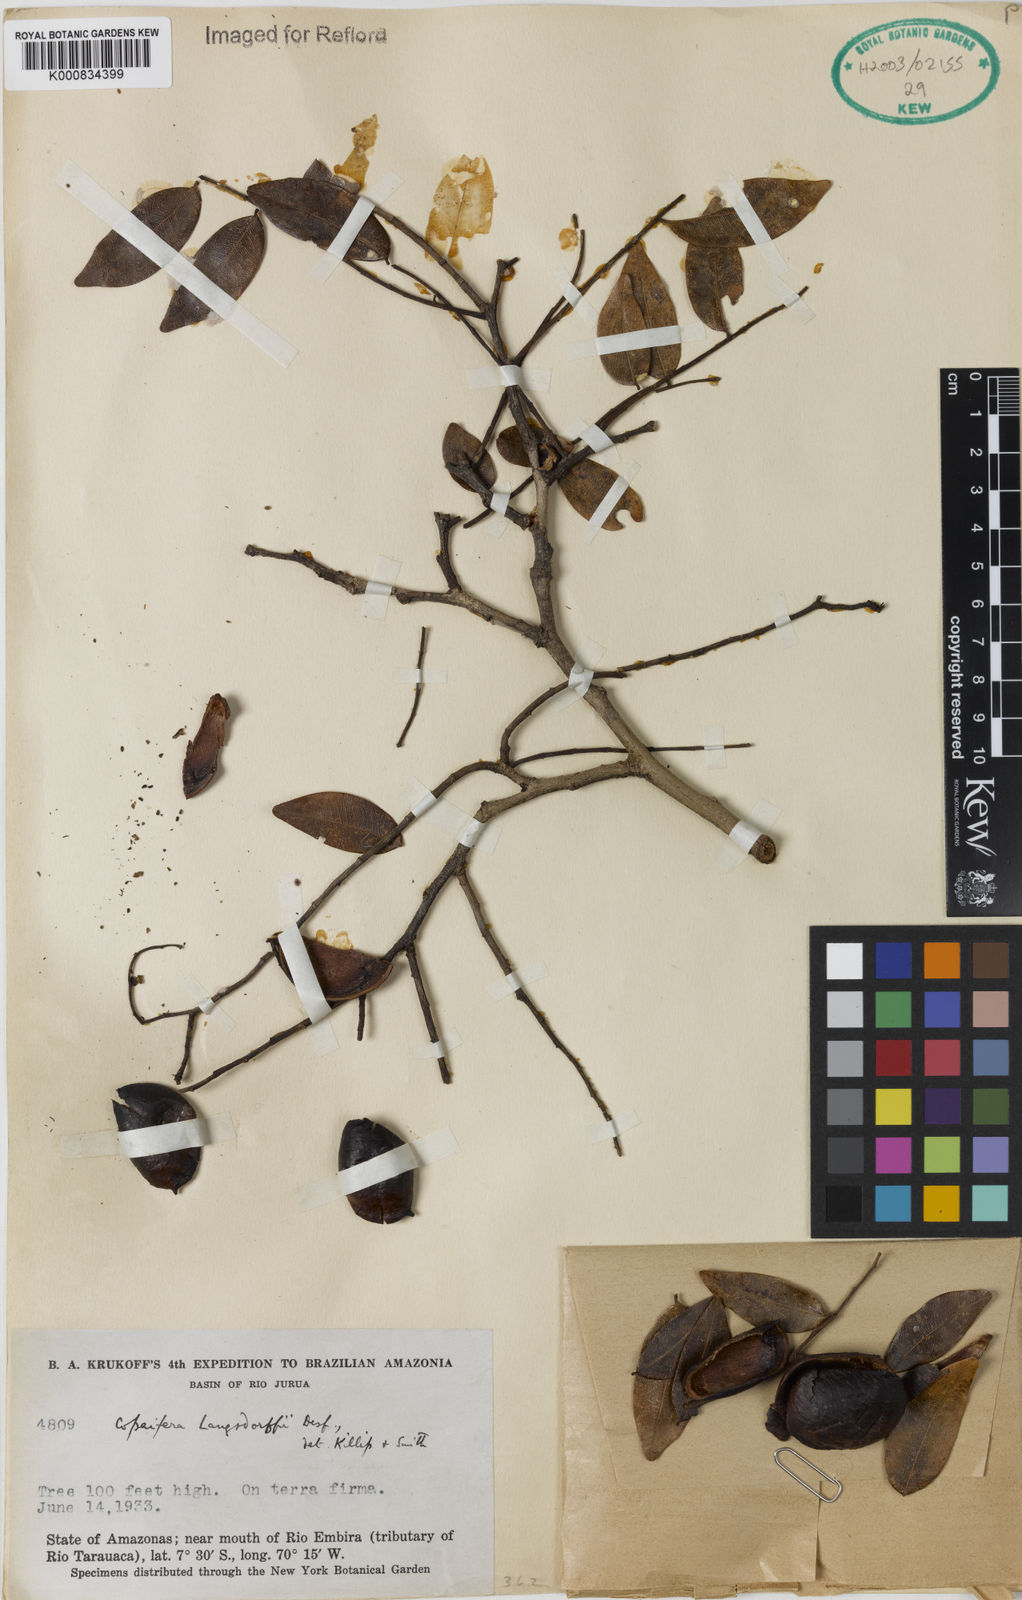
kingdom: Plantae
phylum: Tracheophyta
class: Magnoliopsida
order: Fabales
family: Fabaceae
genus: Copaifera
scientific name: Copaifera langsdorffii
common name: Brazilian diesel tree
